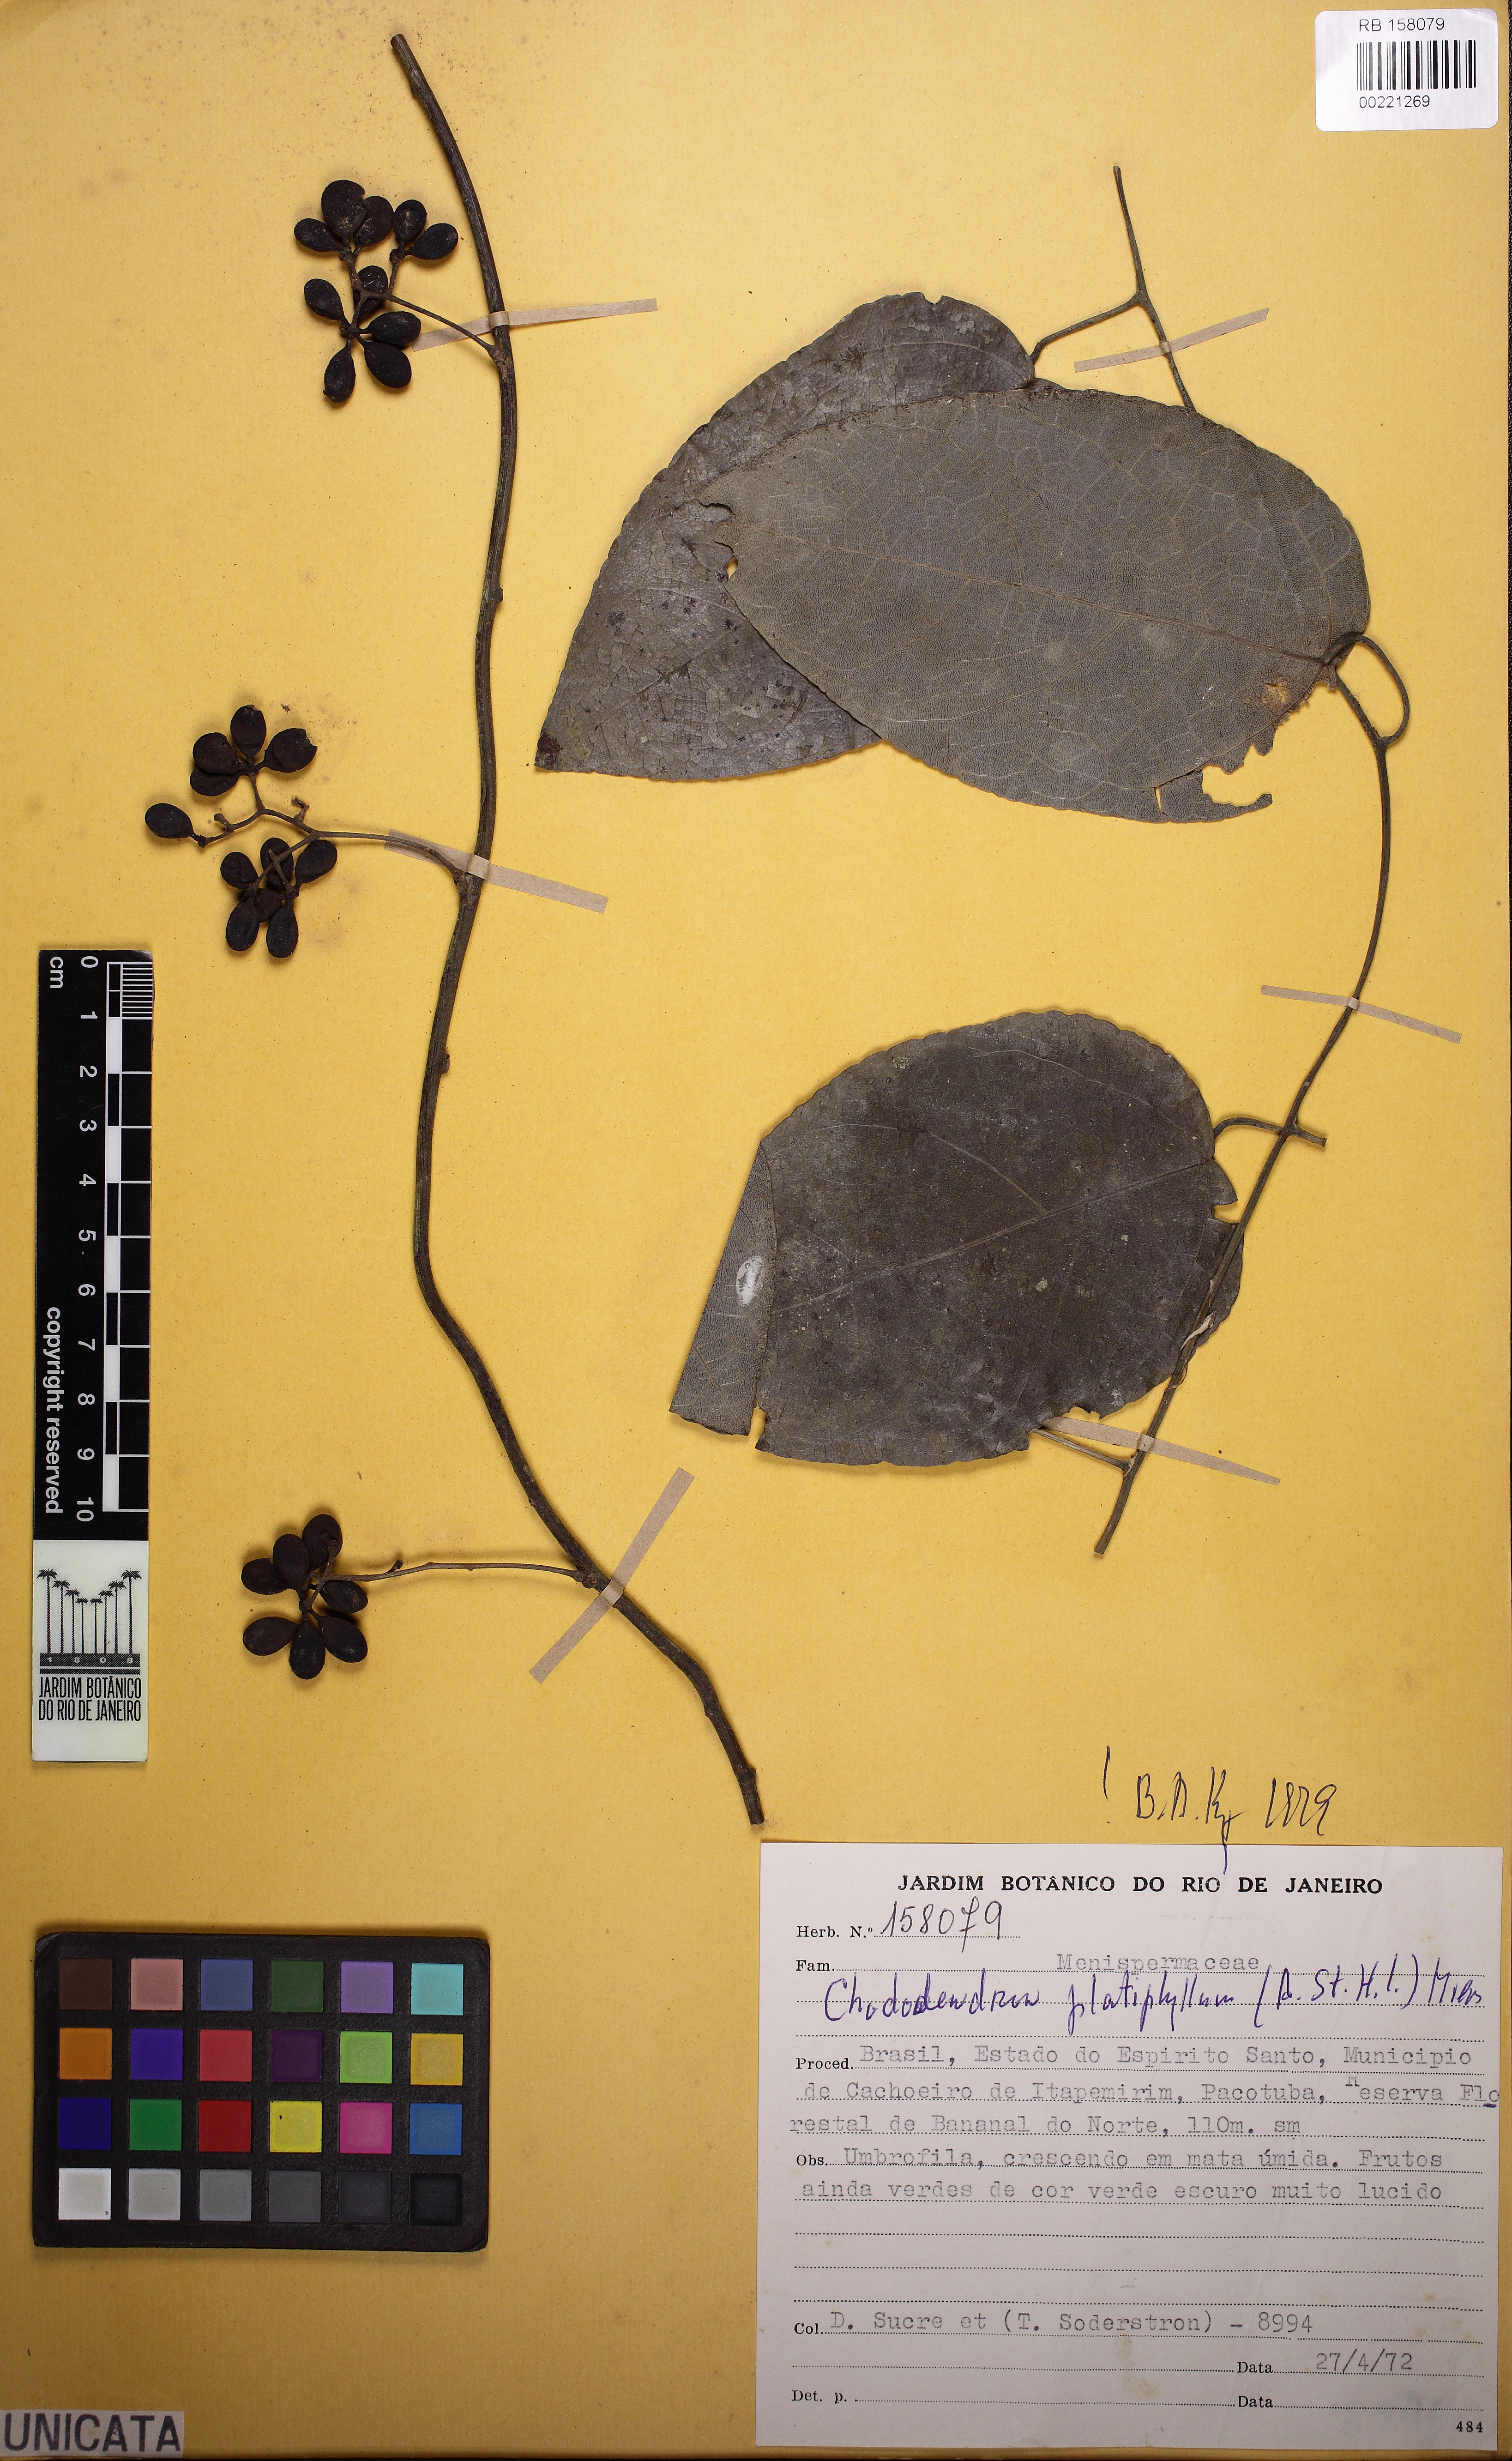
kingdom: Plantae
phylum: Tracheophyta
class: Magnoliopsida
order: Ranunculales
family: Menispermaceae
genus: Chondrodendron
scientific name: Chondrodendron platyphyllum
